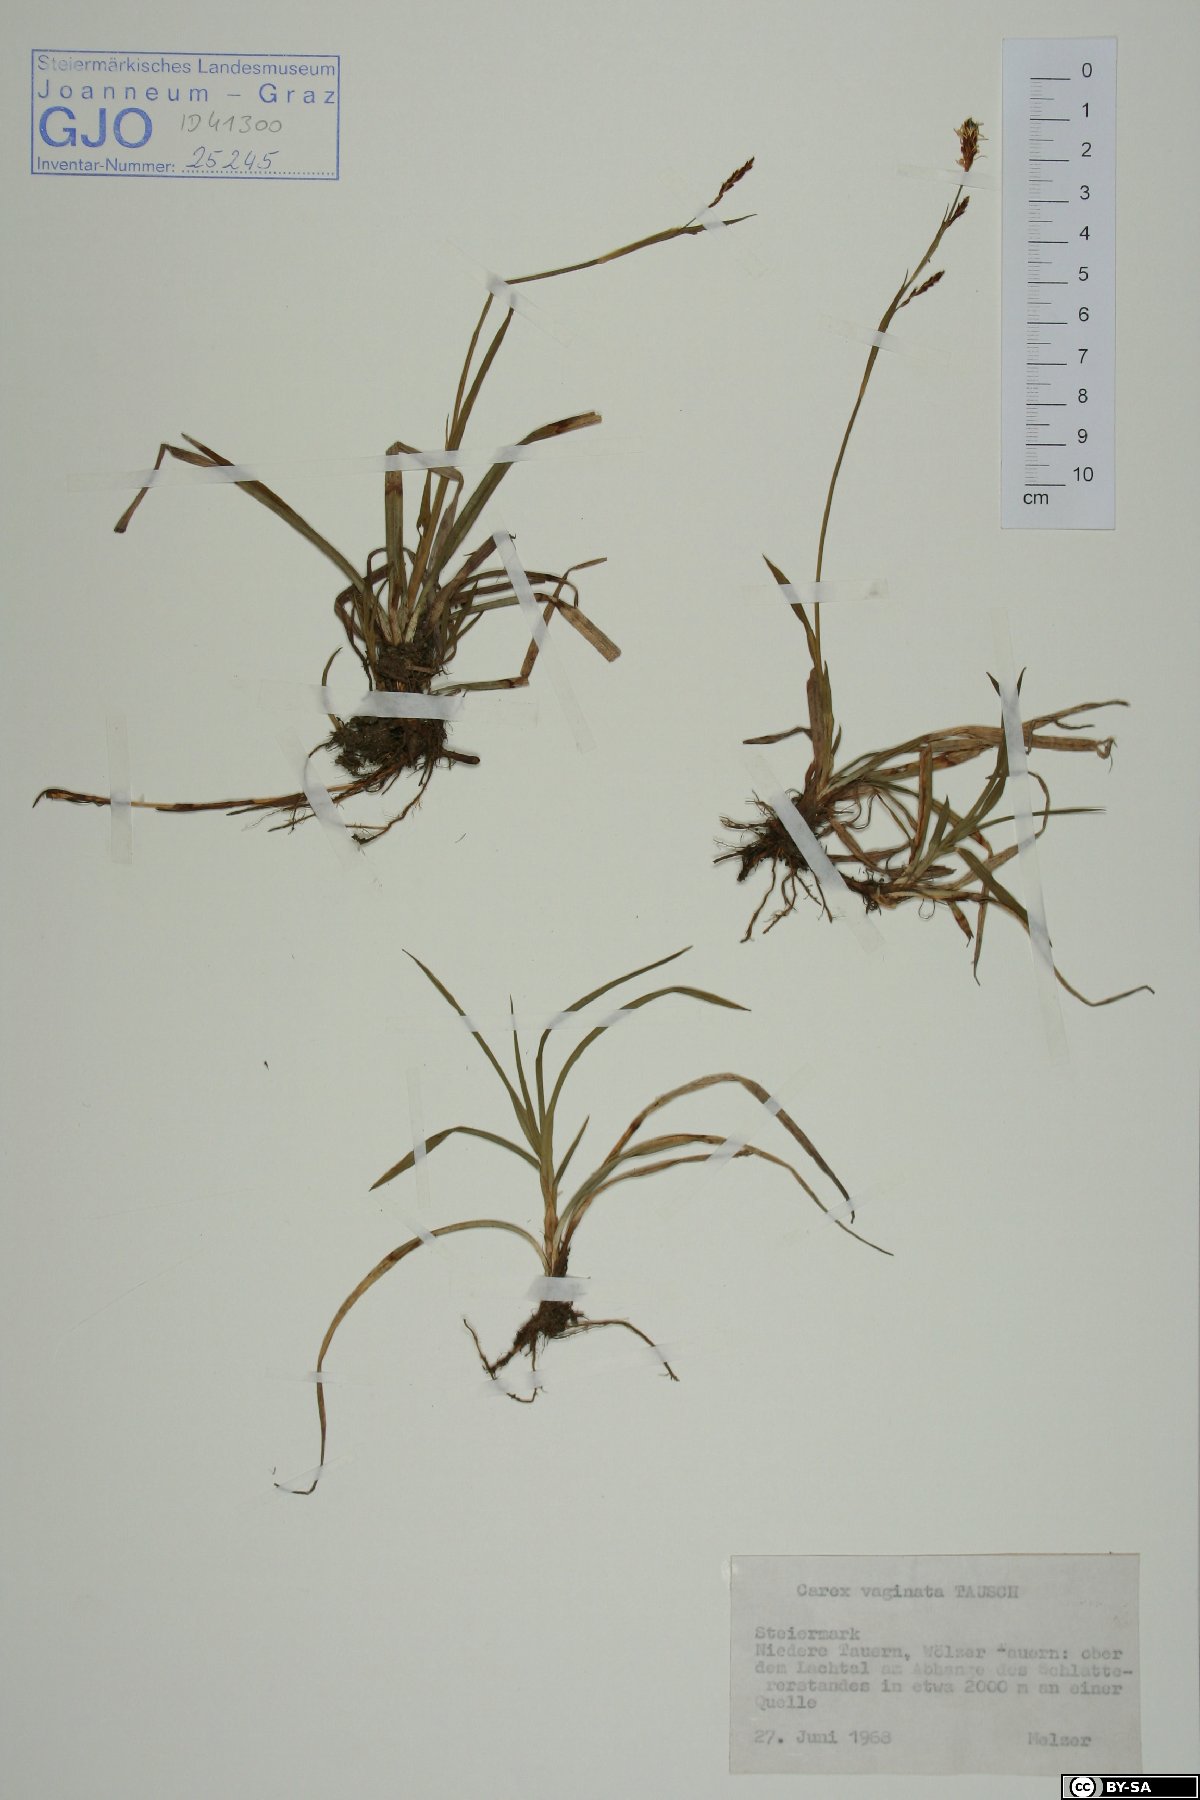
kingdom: Plantae
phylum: Tracheophyta
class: Liliopsida
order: Poales
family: Cyperaceae
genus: Carex
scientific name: Carex vaginata
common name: Sheathed sedge
